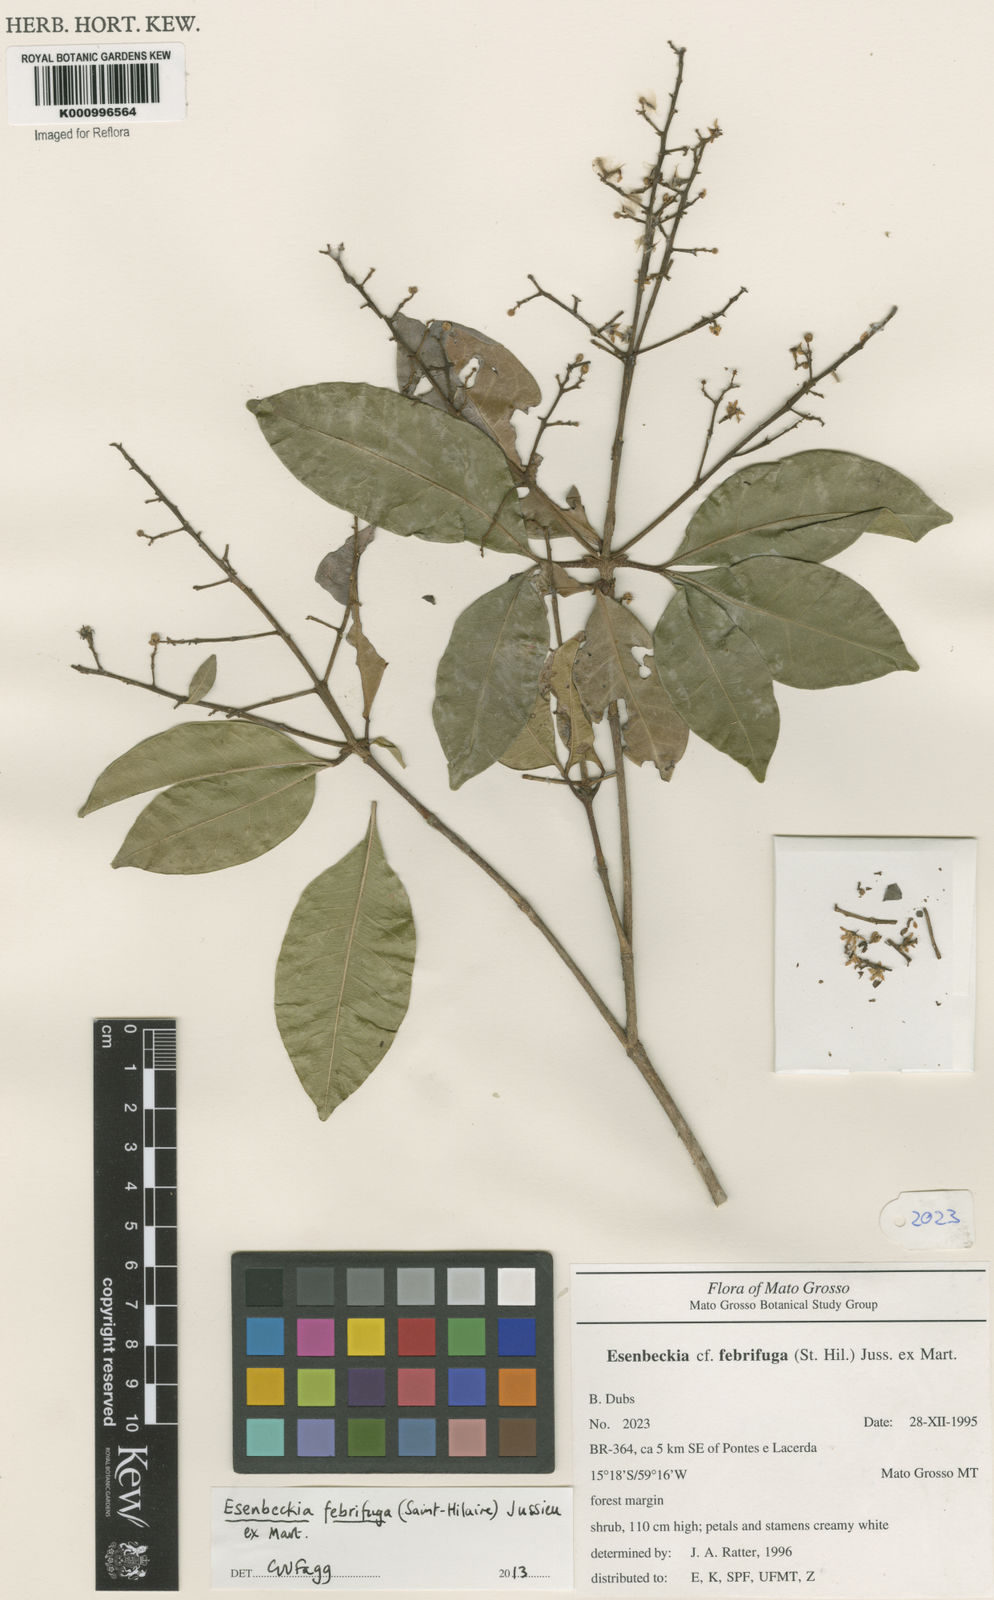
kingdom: Plantae
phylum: Tracheophyta
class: Magnoliopsida
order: Sapindales
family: Rutaceae
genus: Esenbeckia
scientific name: Esenbeckia febrifuga
